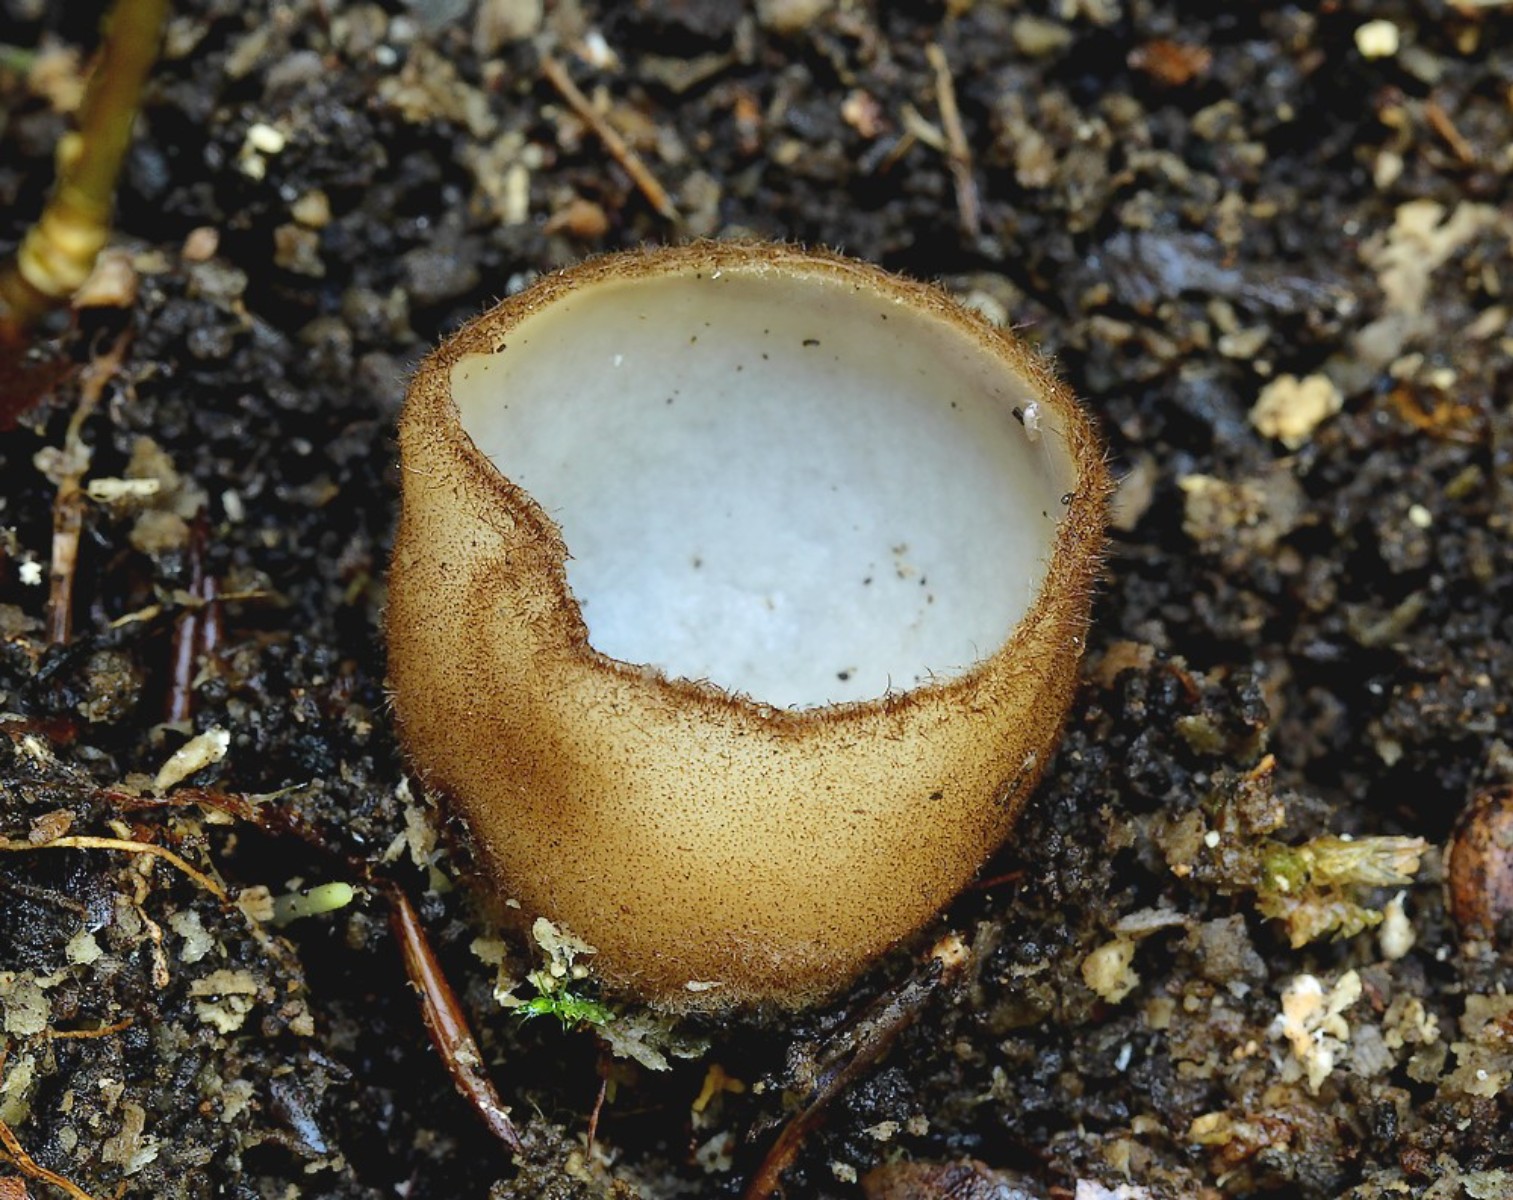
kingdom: Fungi
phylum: Ascomycota
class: Pezizomycetes
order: Pezizales
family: Pyronemataceae
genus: Humaria
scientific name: Humaria hemisphaerica
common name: halvkugleformet børstebæger
